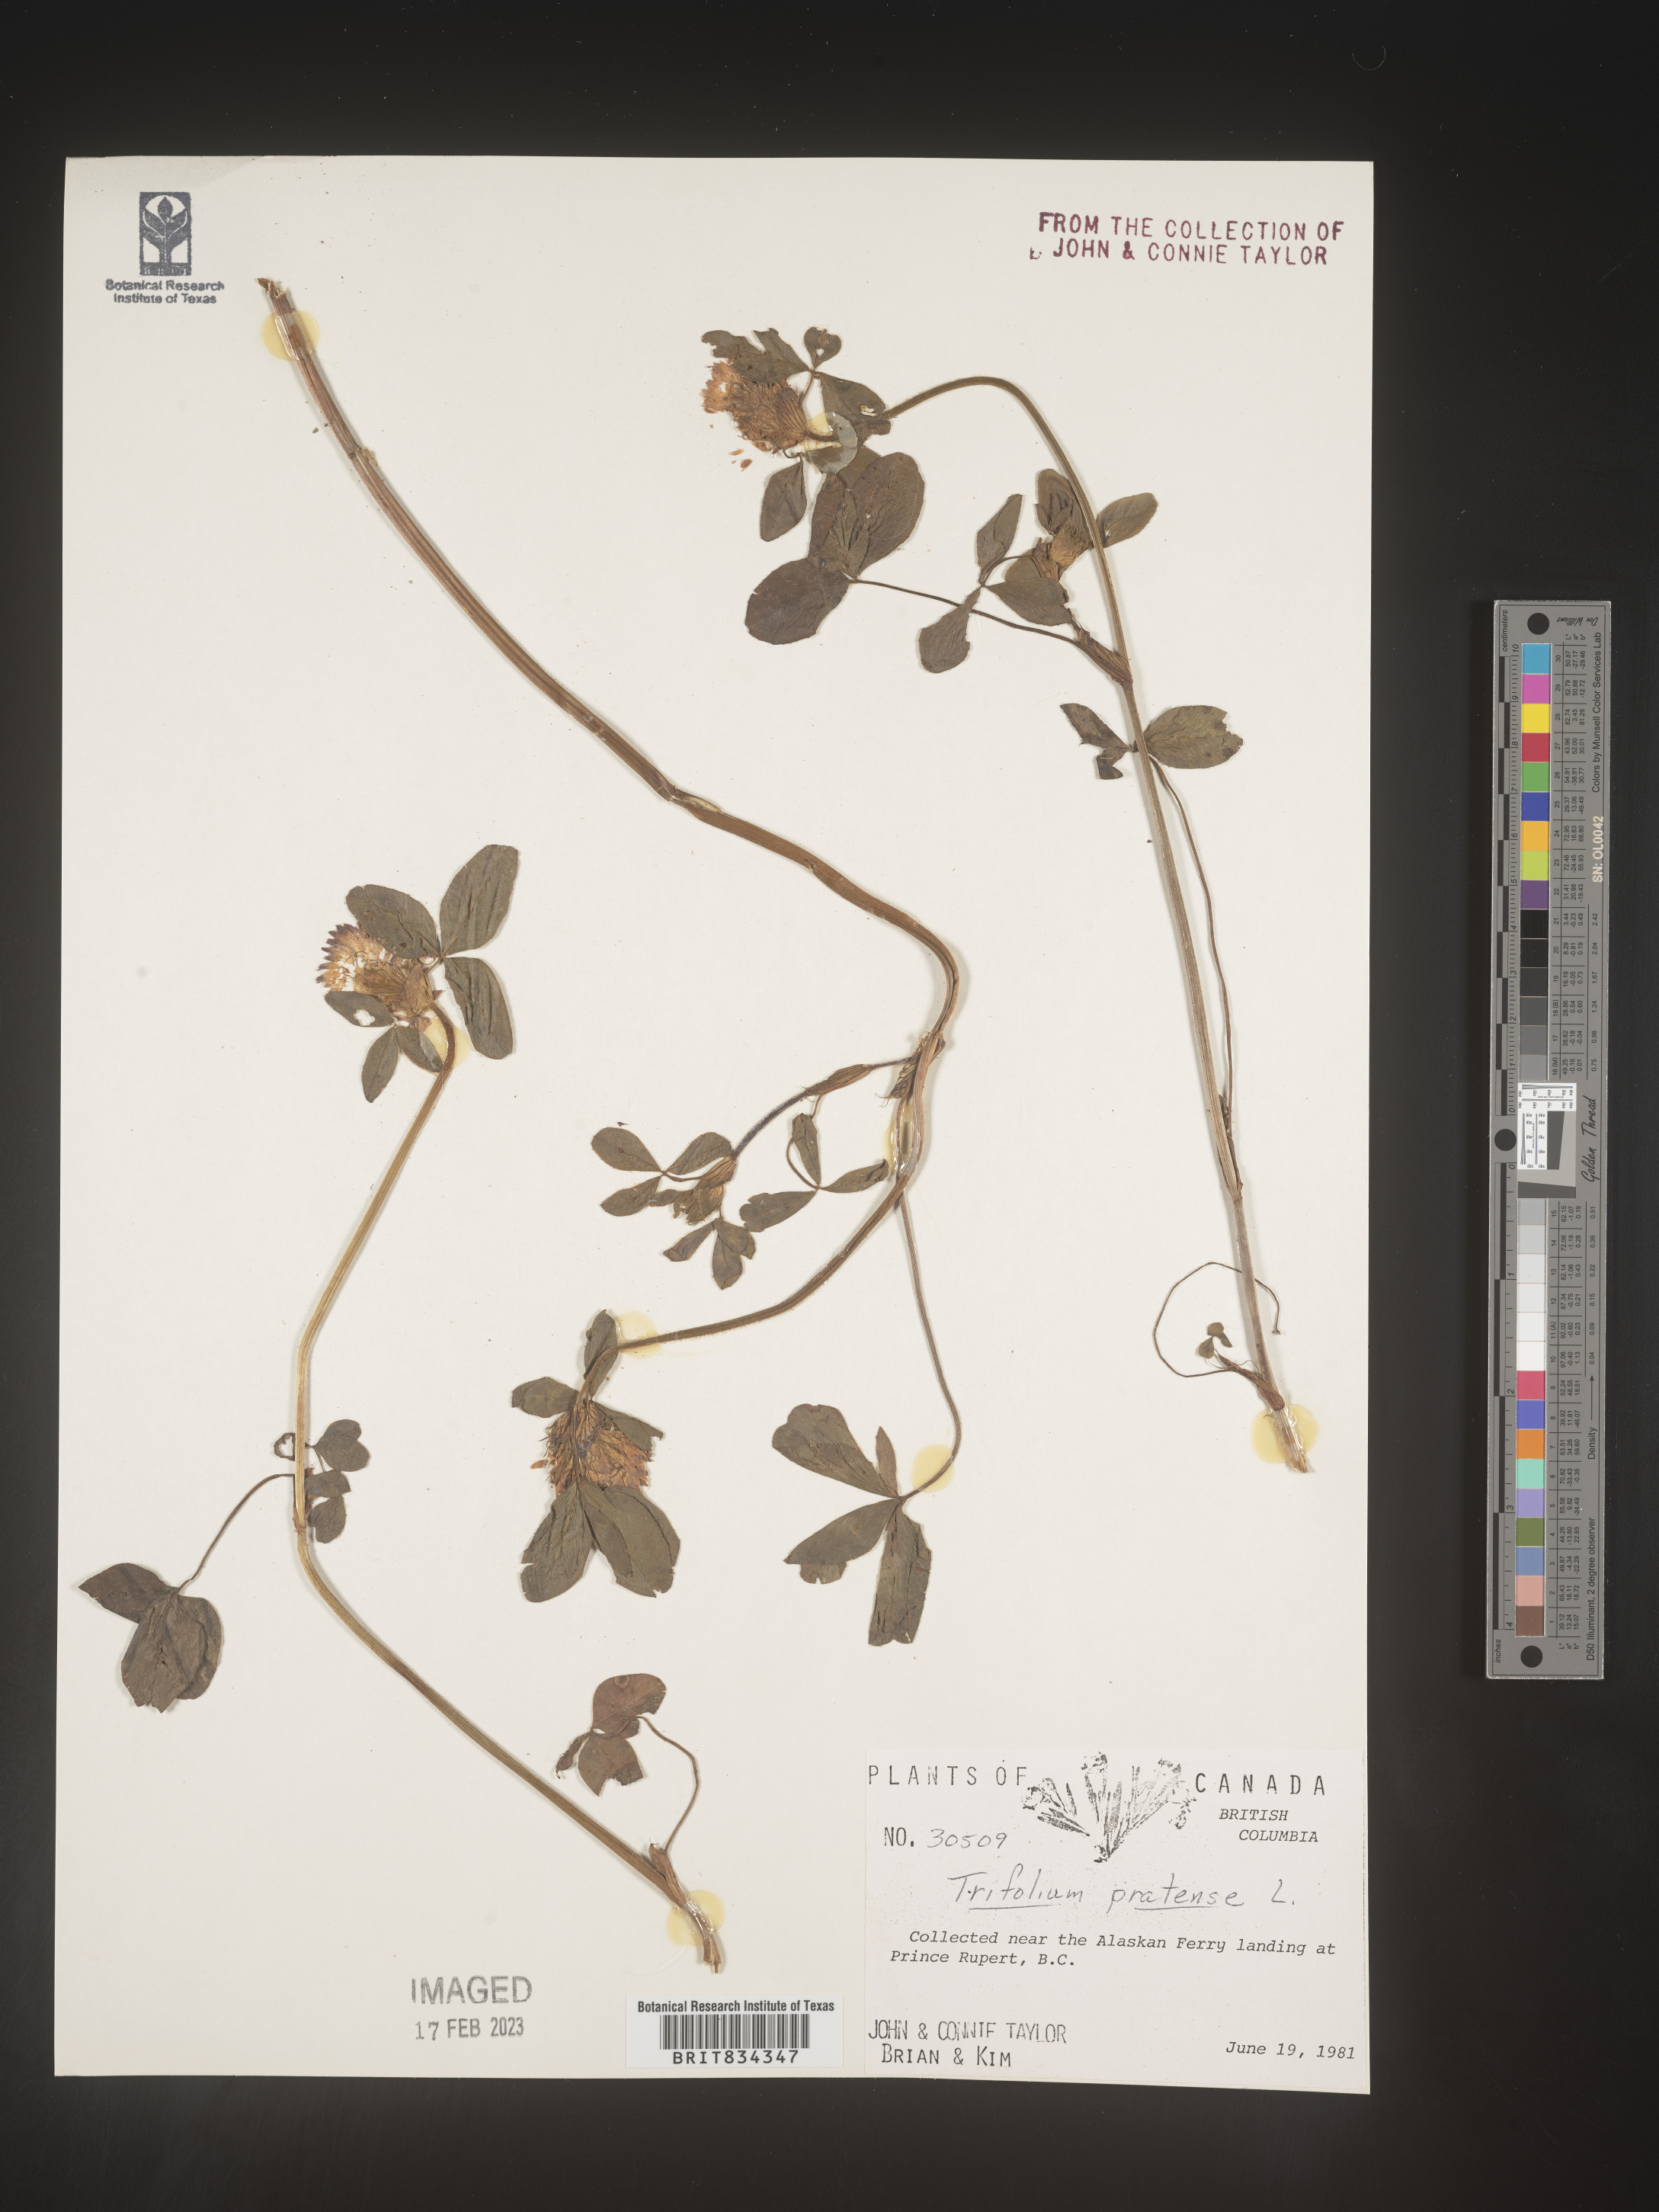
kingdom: Plantae
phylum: Tracheophyta
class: Magnoliopsida
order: Fabales
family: Fabaceae
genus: Trifolium
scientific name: Trifolium pratense
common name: Red clover
